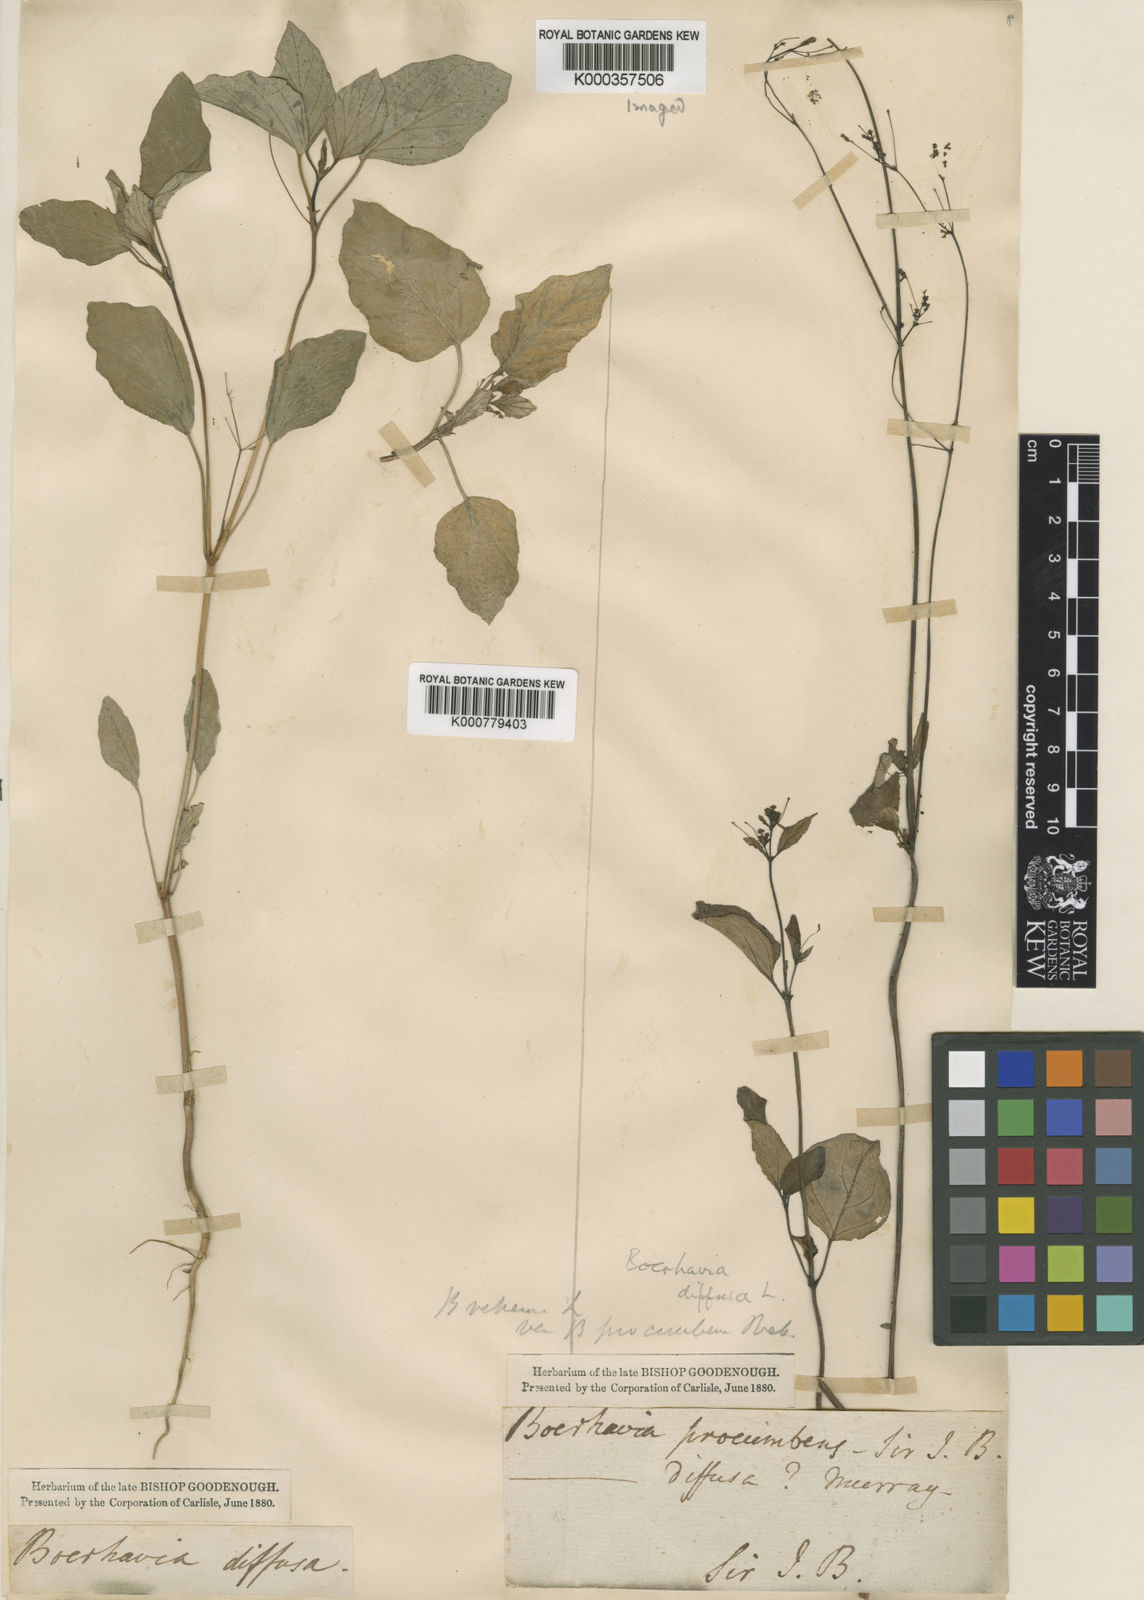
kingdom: Plantae
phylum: Tracheophyta
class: Magnoliopsida
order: Caryophyllales
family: Nyctaginaceae
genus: Boerhavia
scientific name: Boerhavia coccinea
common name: Scarlet spiderling
